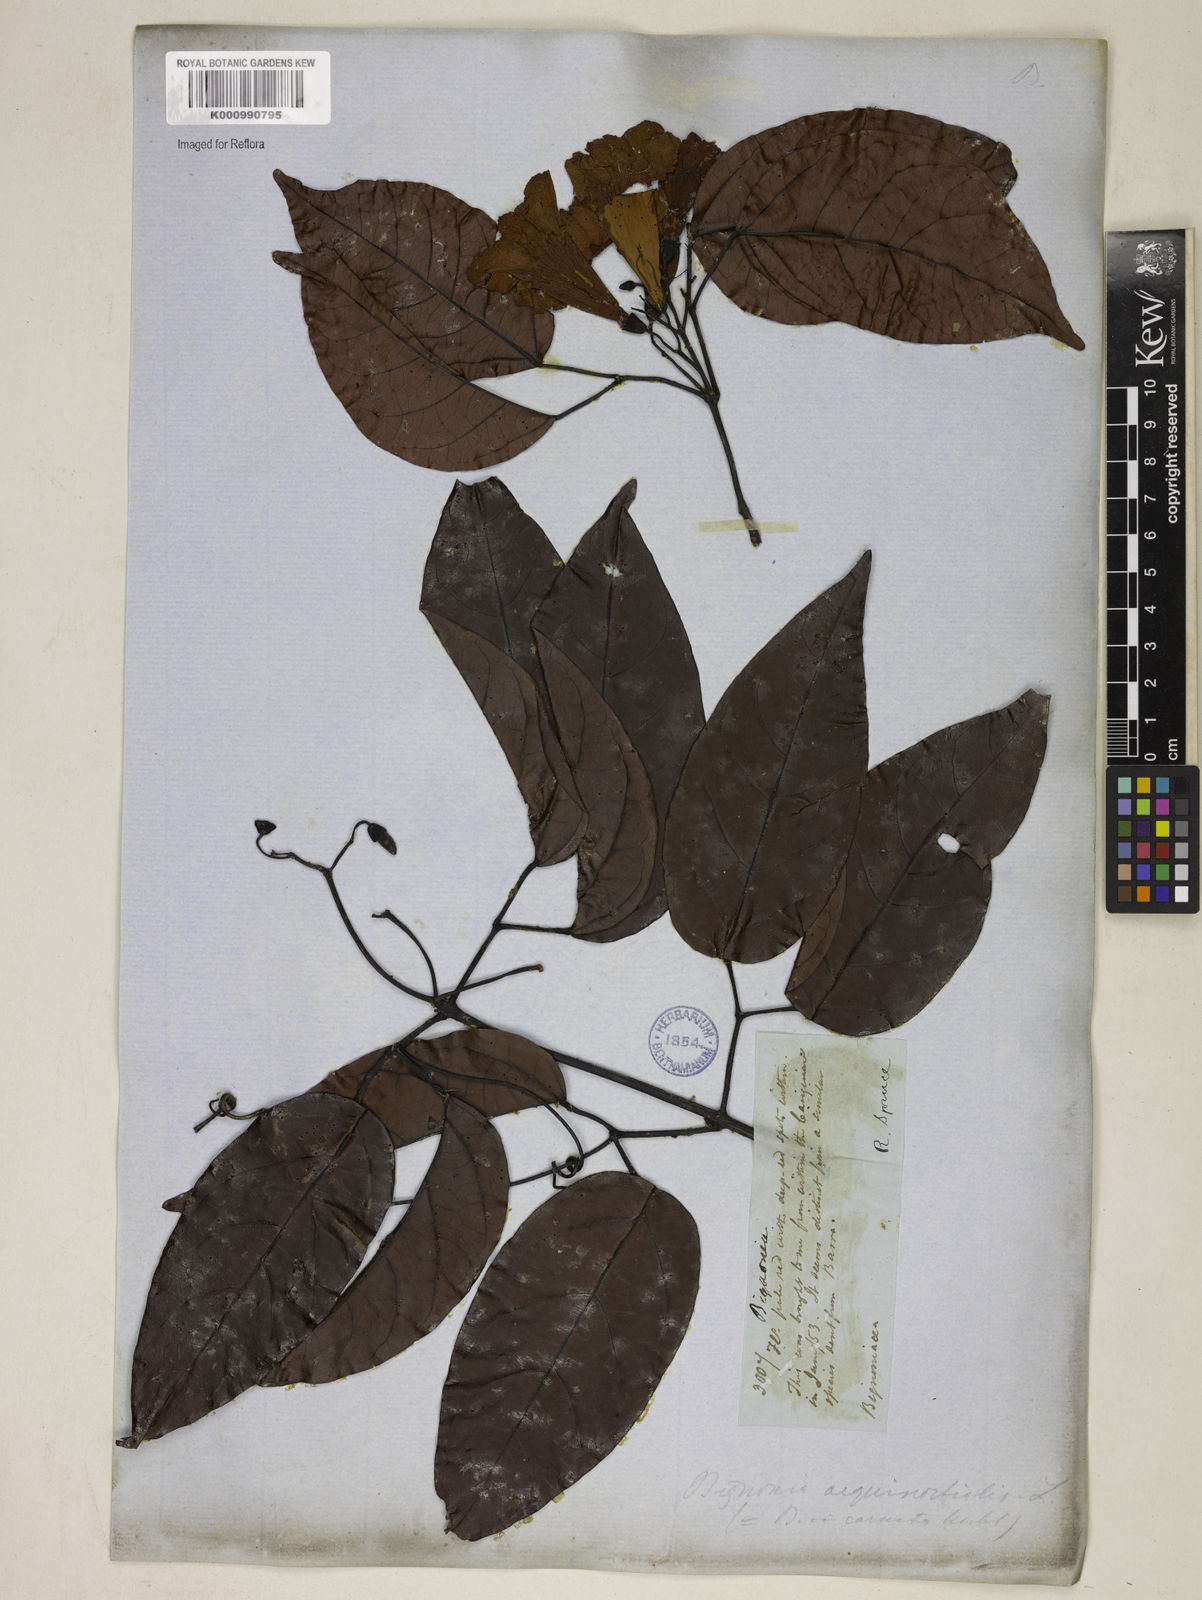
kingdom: Plantae
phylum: Tracheophyta
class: Magnoliopsida
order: Lamiales
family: Bignoniaceae
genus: Bignonia
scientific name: Bignonia aequinoctialis
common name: Garlicvine
